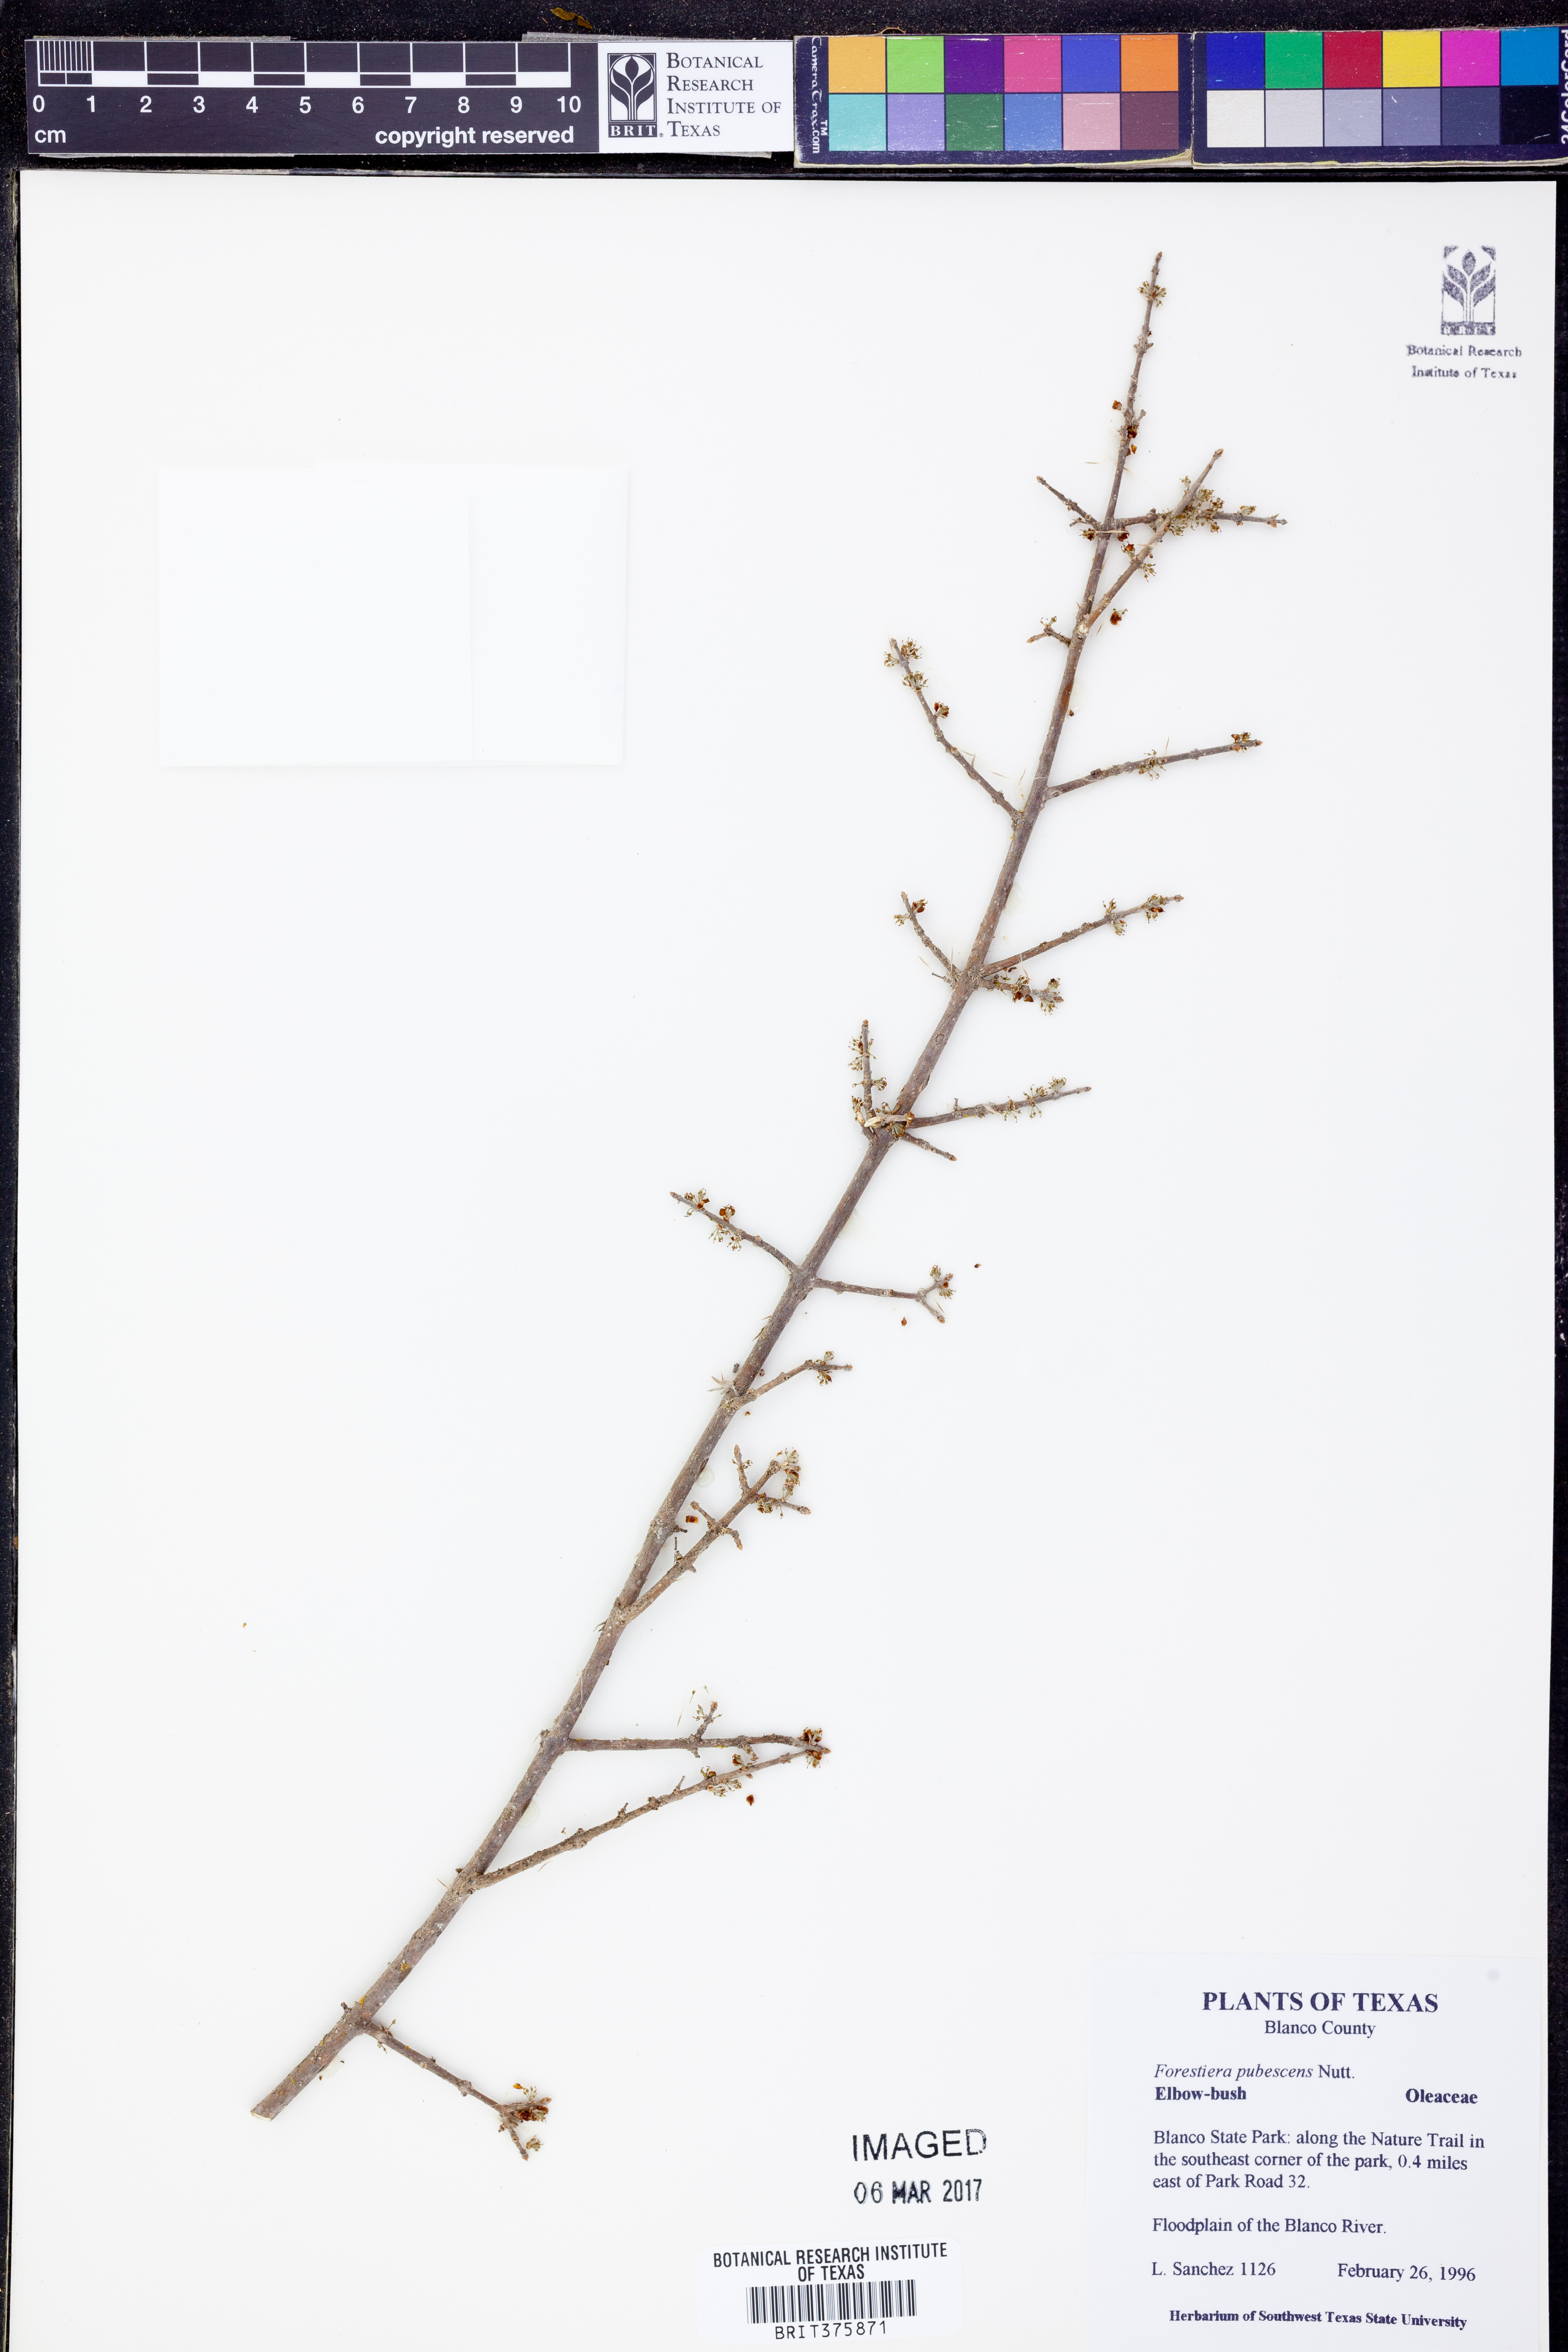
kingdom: Plantae
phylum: Tracheophyta
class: Magnoliopsida
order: Lamiales
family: Oleaceae
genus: Forestiera
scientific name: Forestiera pubescens
